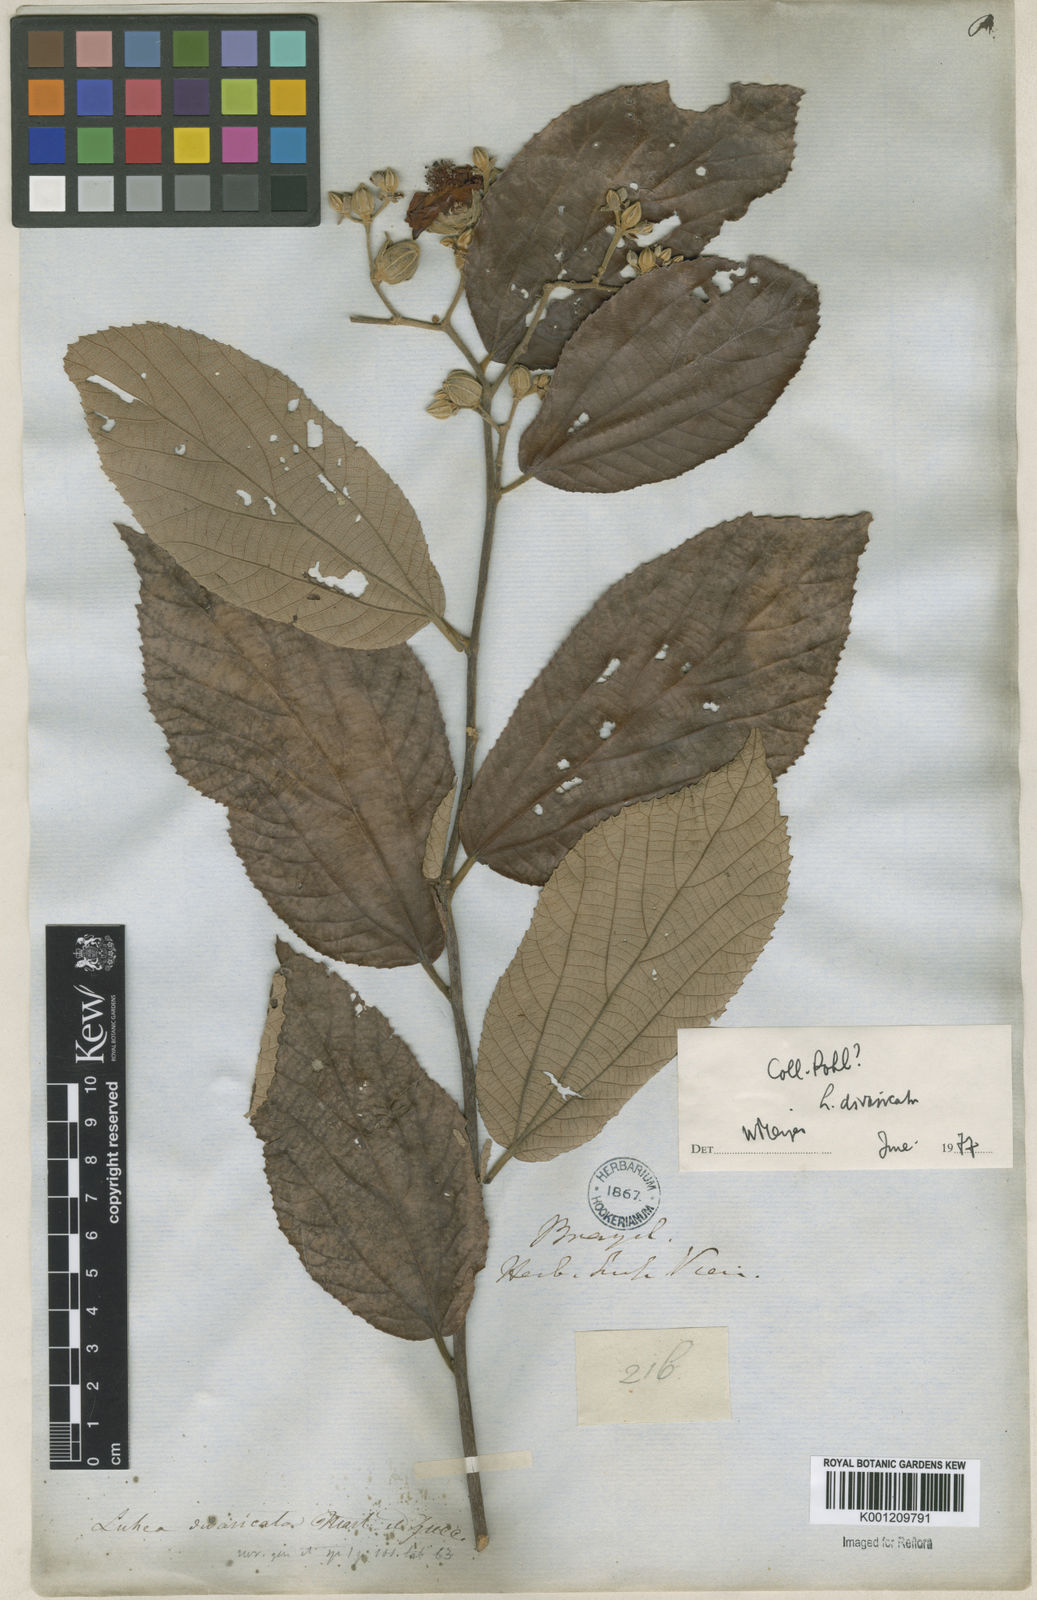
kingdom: Plantae
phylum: Tracheophyta
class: Magnoliopsida
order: Malvales
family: Malvaceae
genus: Luehea
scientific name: Luehea divaricata
